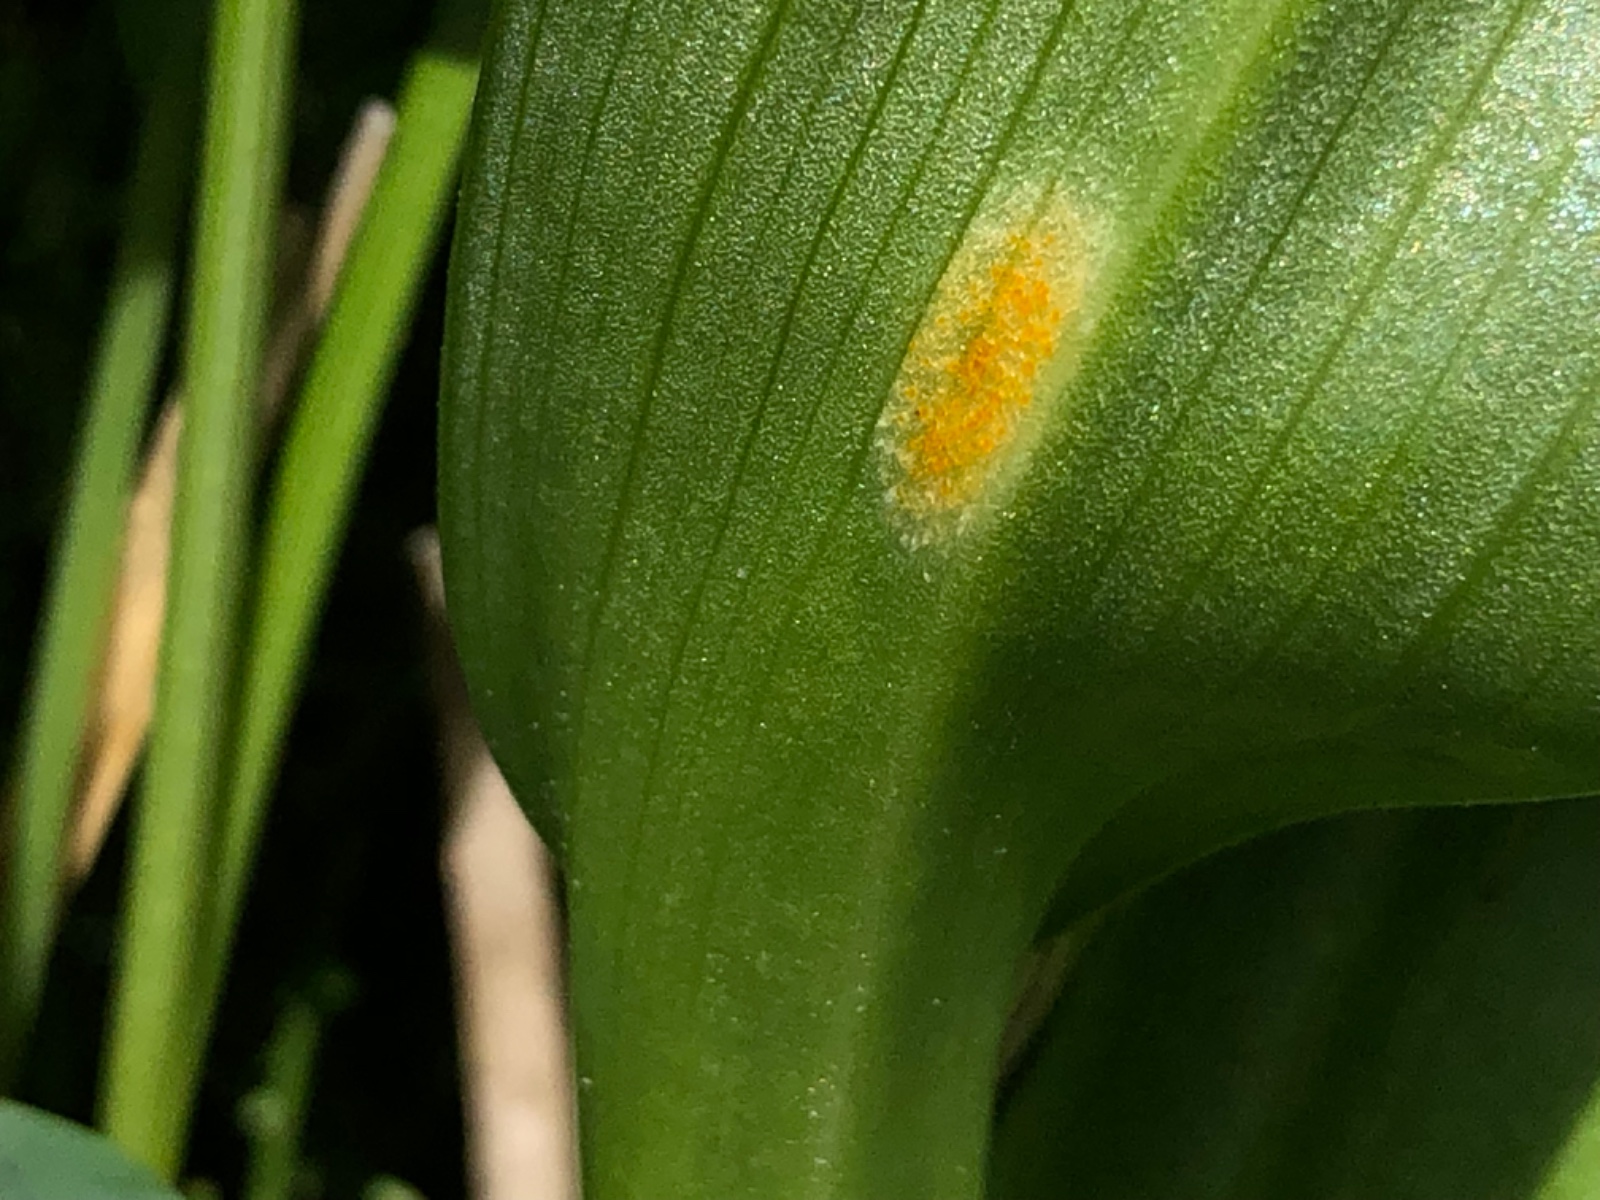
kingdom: Fungi
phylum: Basidiomycota
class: Pucciniomycetes
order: Pucciniales
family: Pucciniaceae
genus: Puccinia
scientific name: Puccinia sessilis
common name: Arum rust
